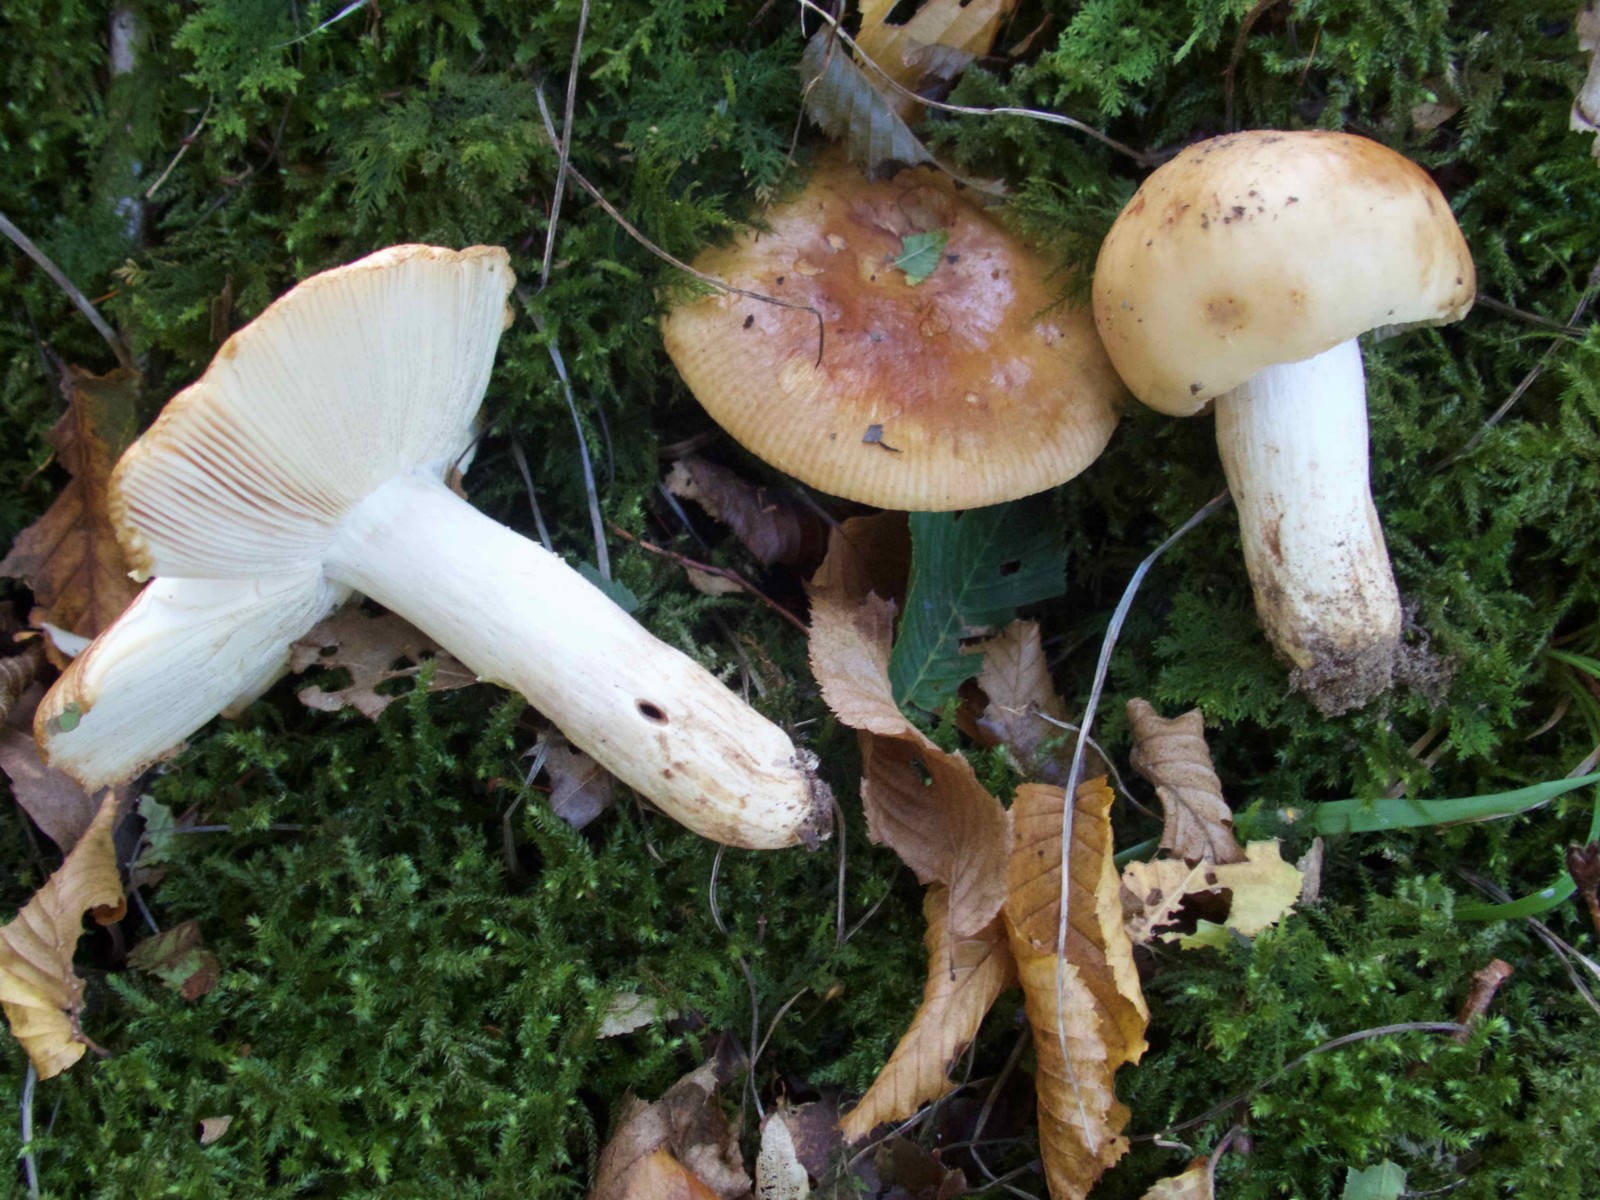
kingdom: Fungi
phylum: Basidiomycota
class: Agaricomycetes
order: Russulales
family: Russulaceae
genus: Russula
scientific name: Russula grata
